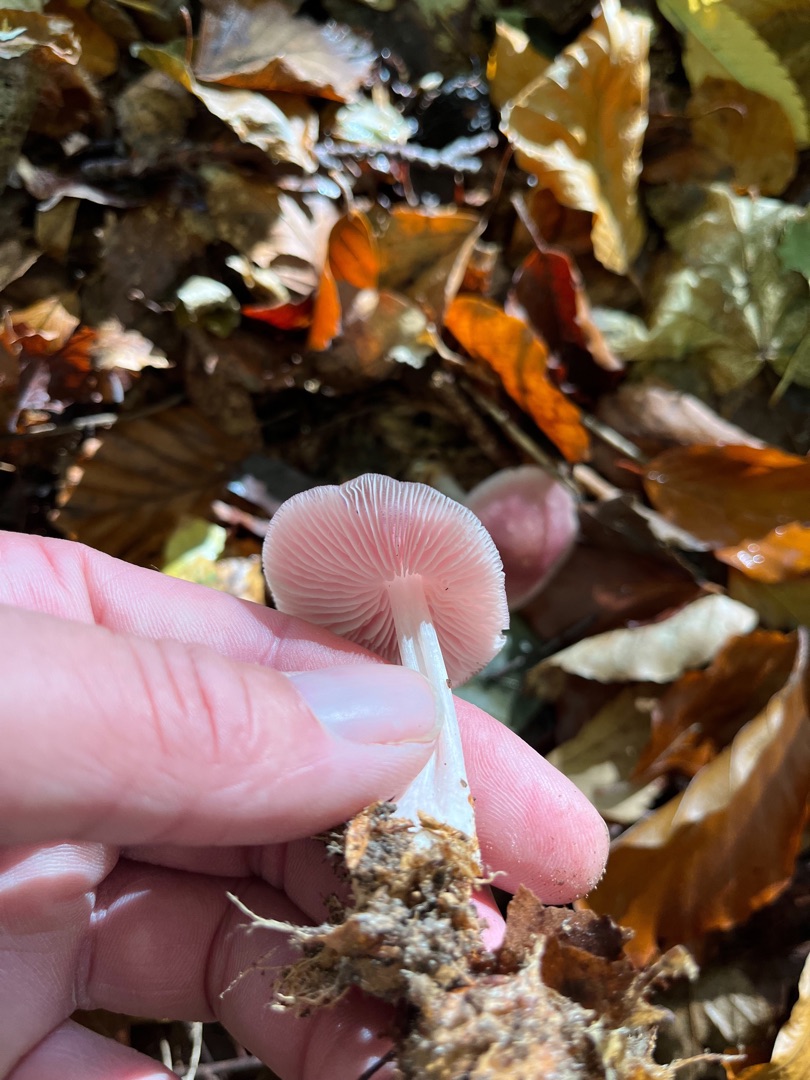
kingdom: Fungi
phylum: Basidiomycota
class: Agaricomycetes
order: Agaricales
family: Mycenaceae
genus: Mycena
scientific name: Mycena rosea
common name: Rosa huesvamp
